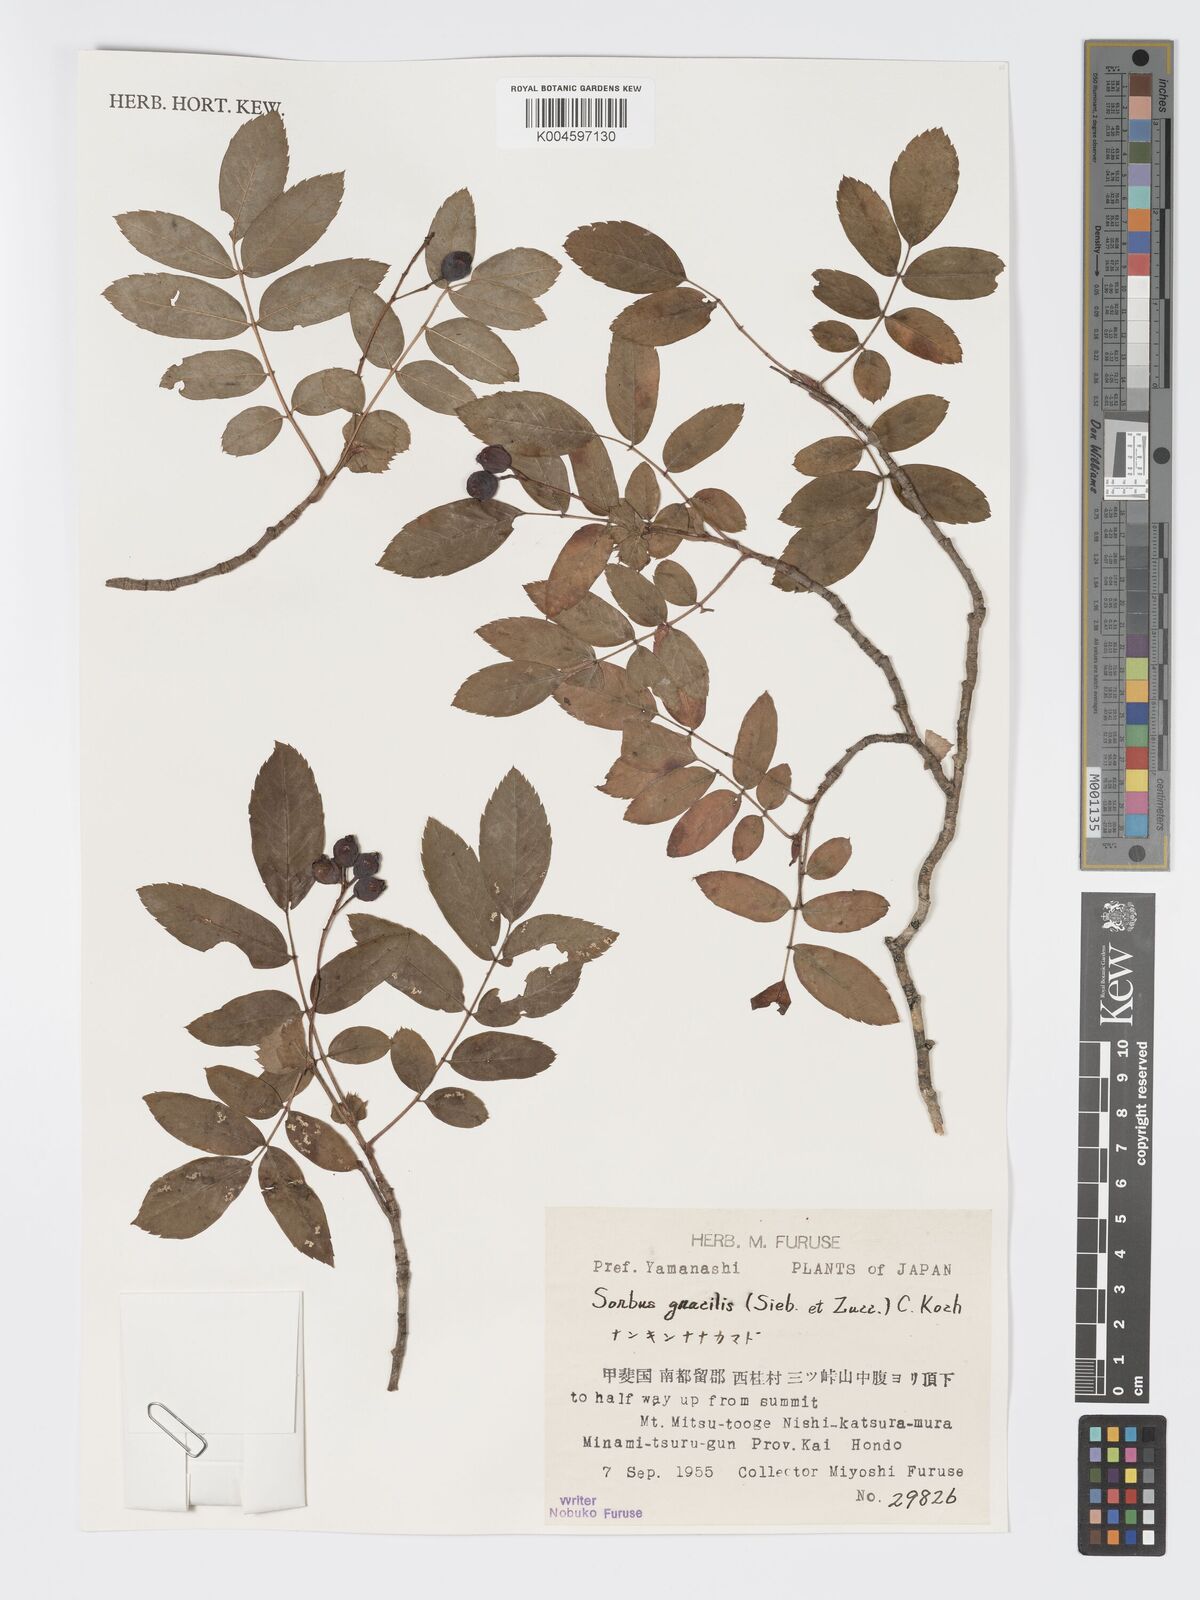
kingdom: Plantae
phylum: Tracheophyta
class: Magnoliopsida
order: Rosales
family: Rosaceae
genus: Sorbus
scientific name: Sorbus gracilis
